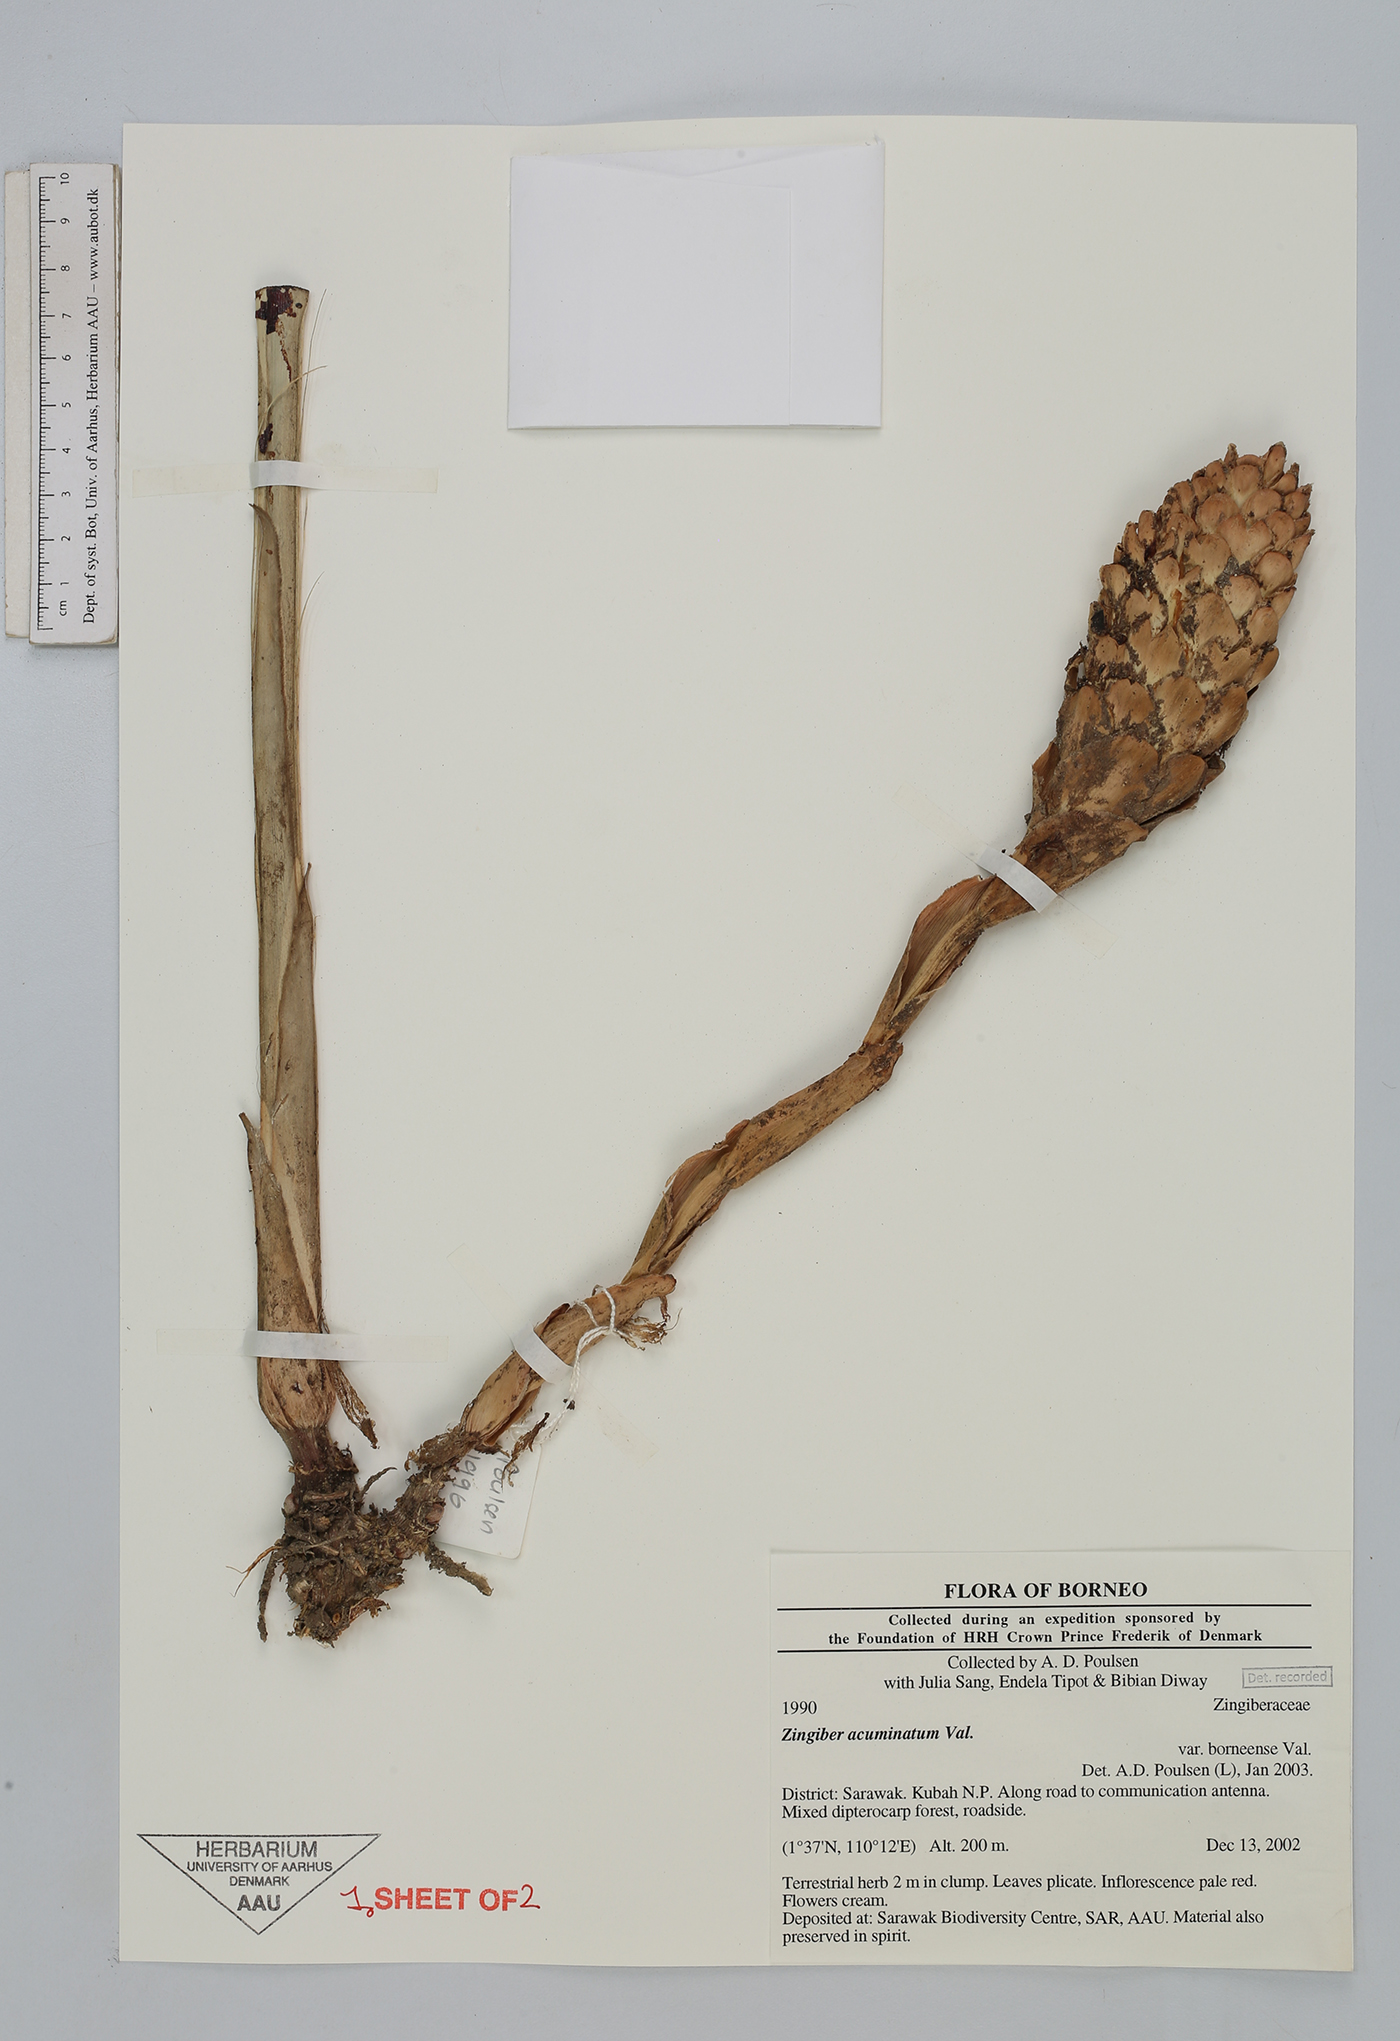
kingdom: Plantae
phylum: Tracheophyta
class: Liliopsida
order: Zingiberales
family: Zingiberaceae
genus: Zingiber
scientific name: Zingiber acuminatum
